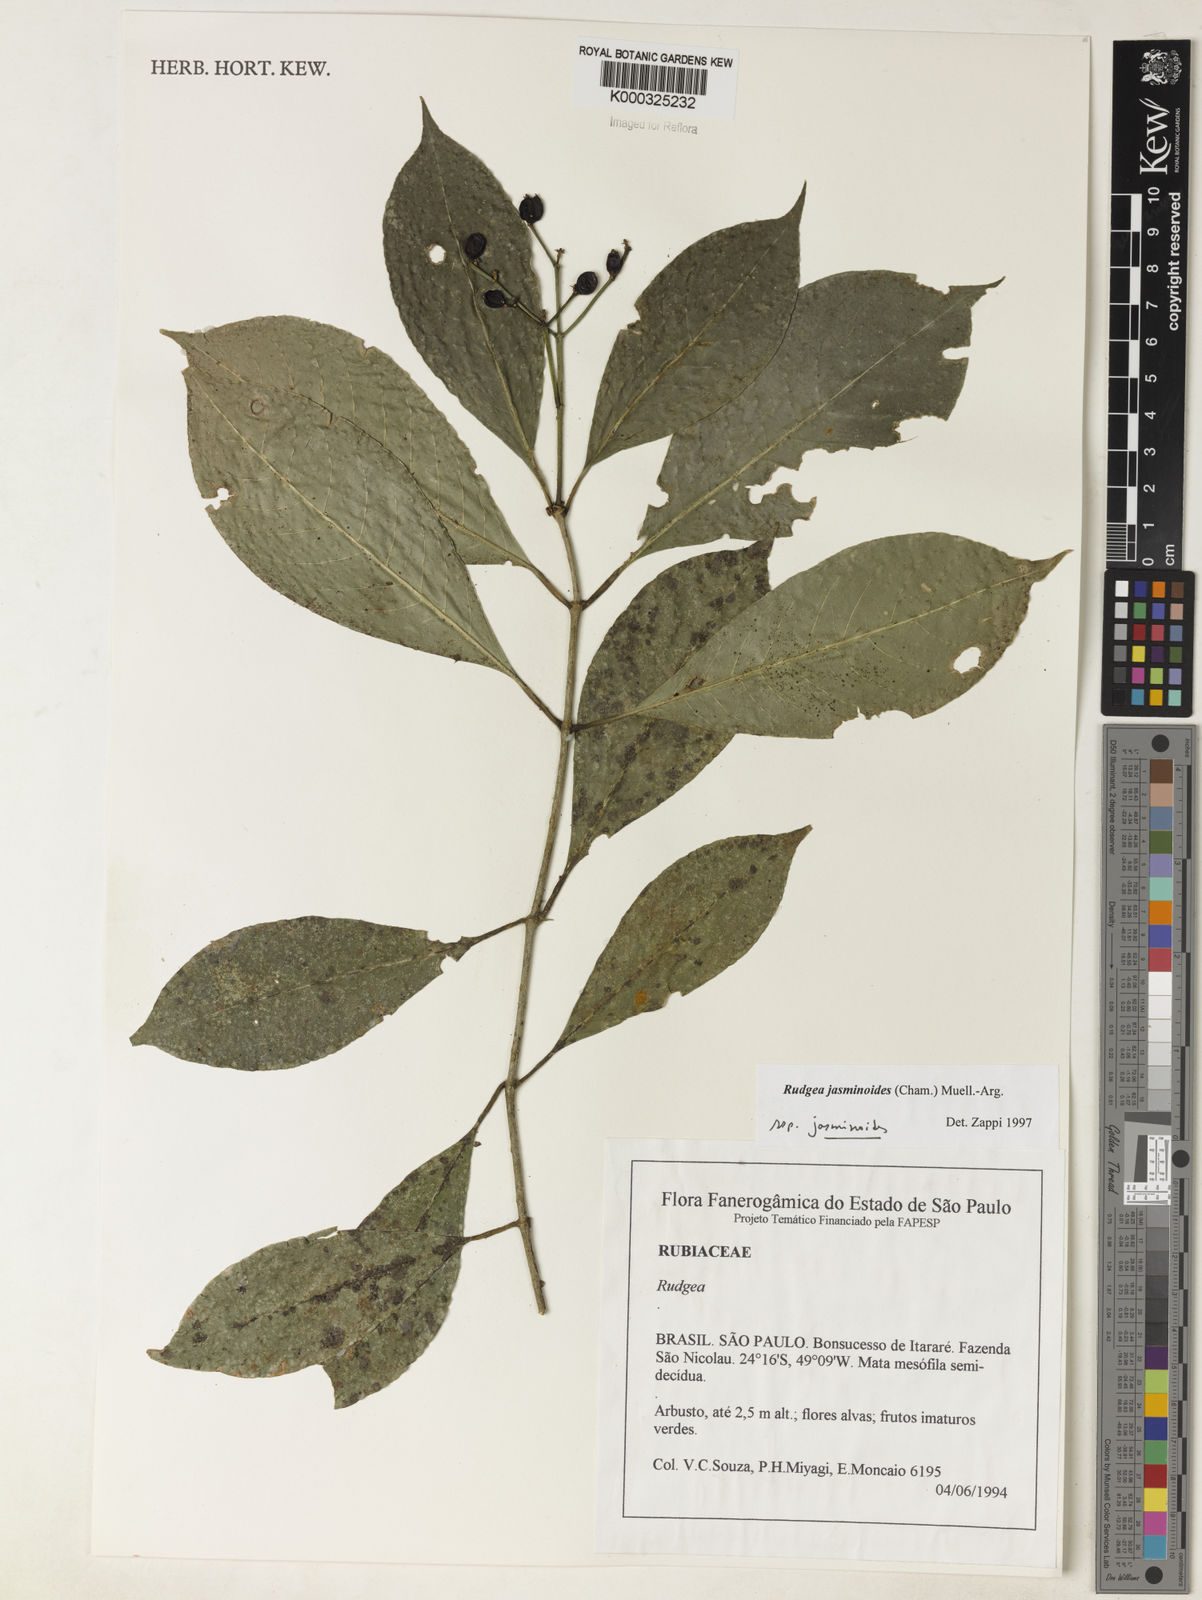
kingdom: Plantae
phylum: Tracheophyta
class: Magnoliopsida
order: Gentianales
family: Rubiaceae
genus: Rudgea
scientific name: Rudgea jasminoides
